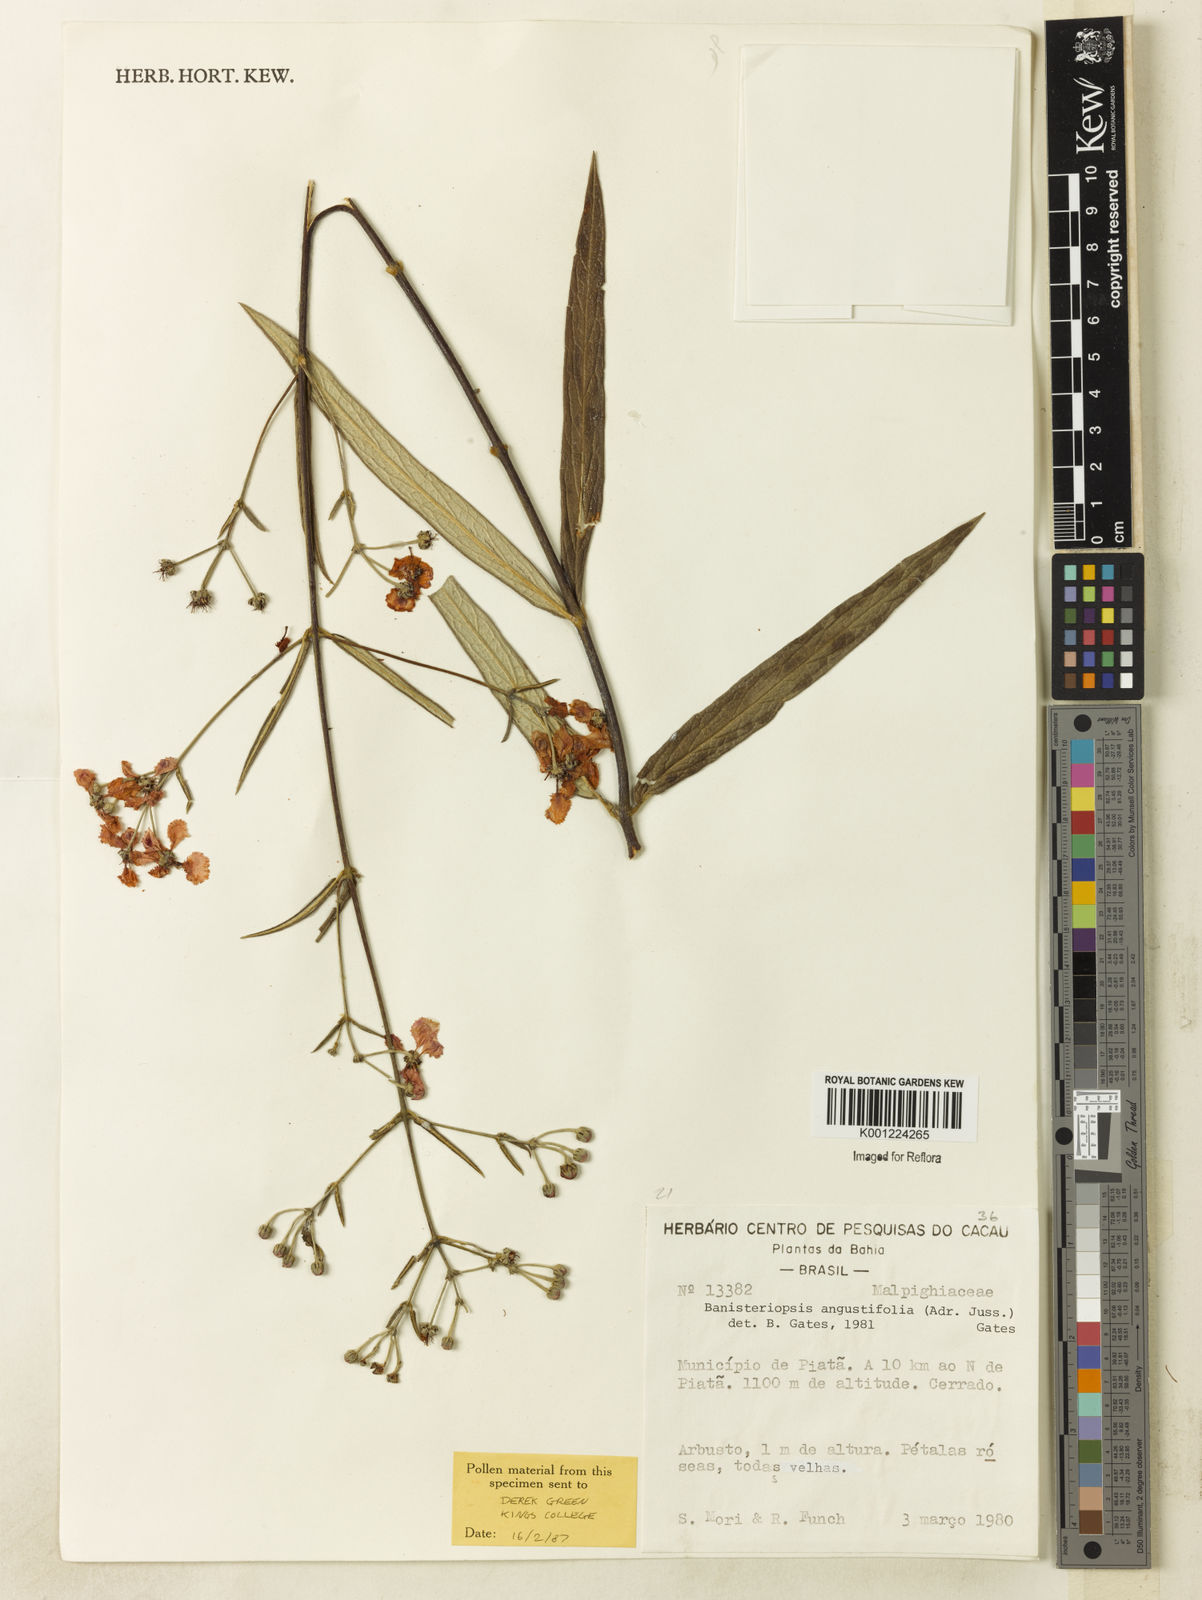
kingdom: Plantae
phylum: Tracheophyta
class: Magnoliopsida
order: Malpighiales
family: Malpighiaceae
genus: Banisteriopsis
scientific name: Banisteriopsis angustifolia
